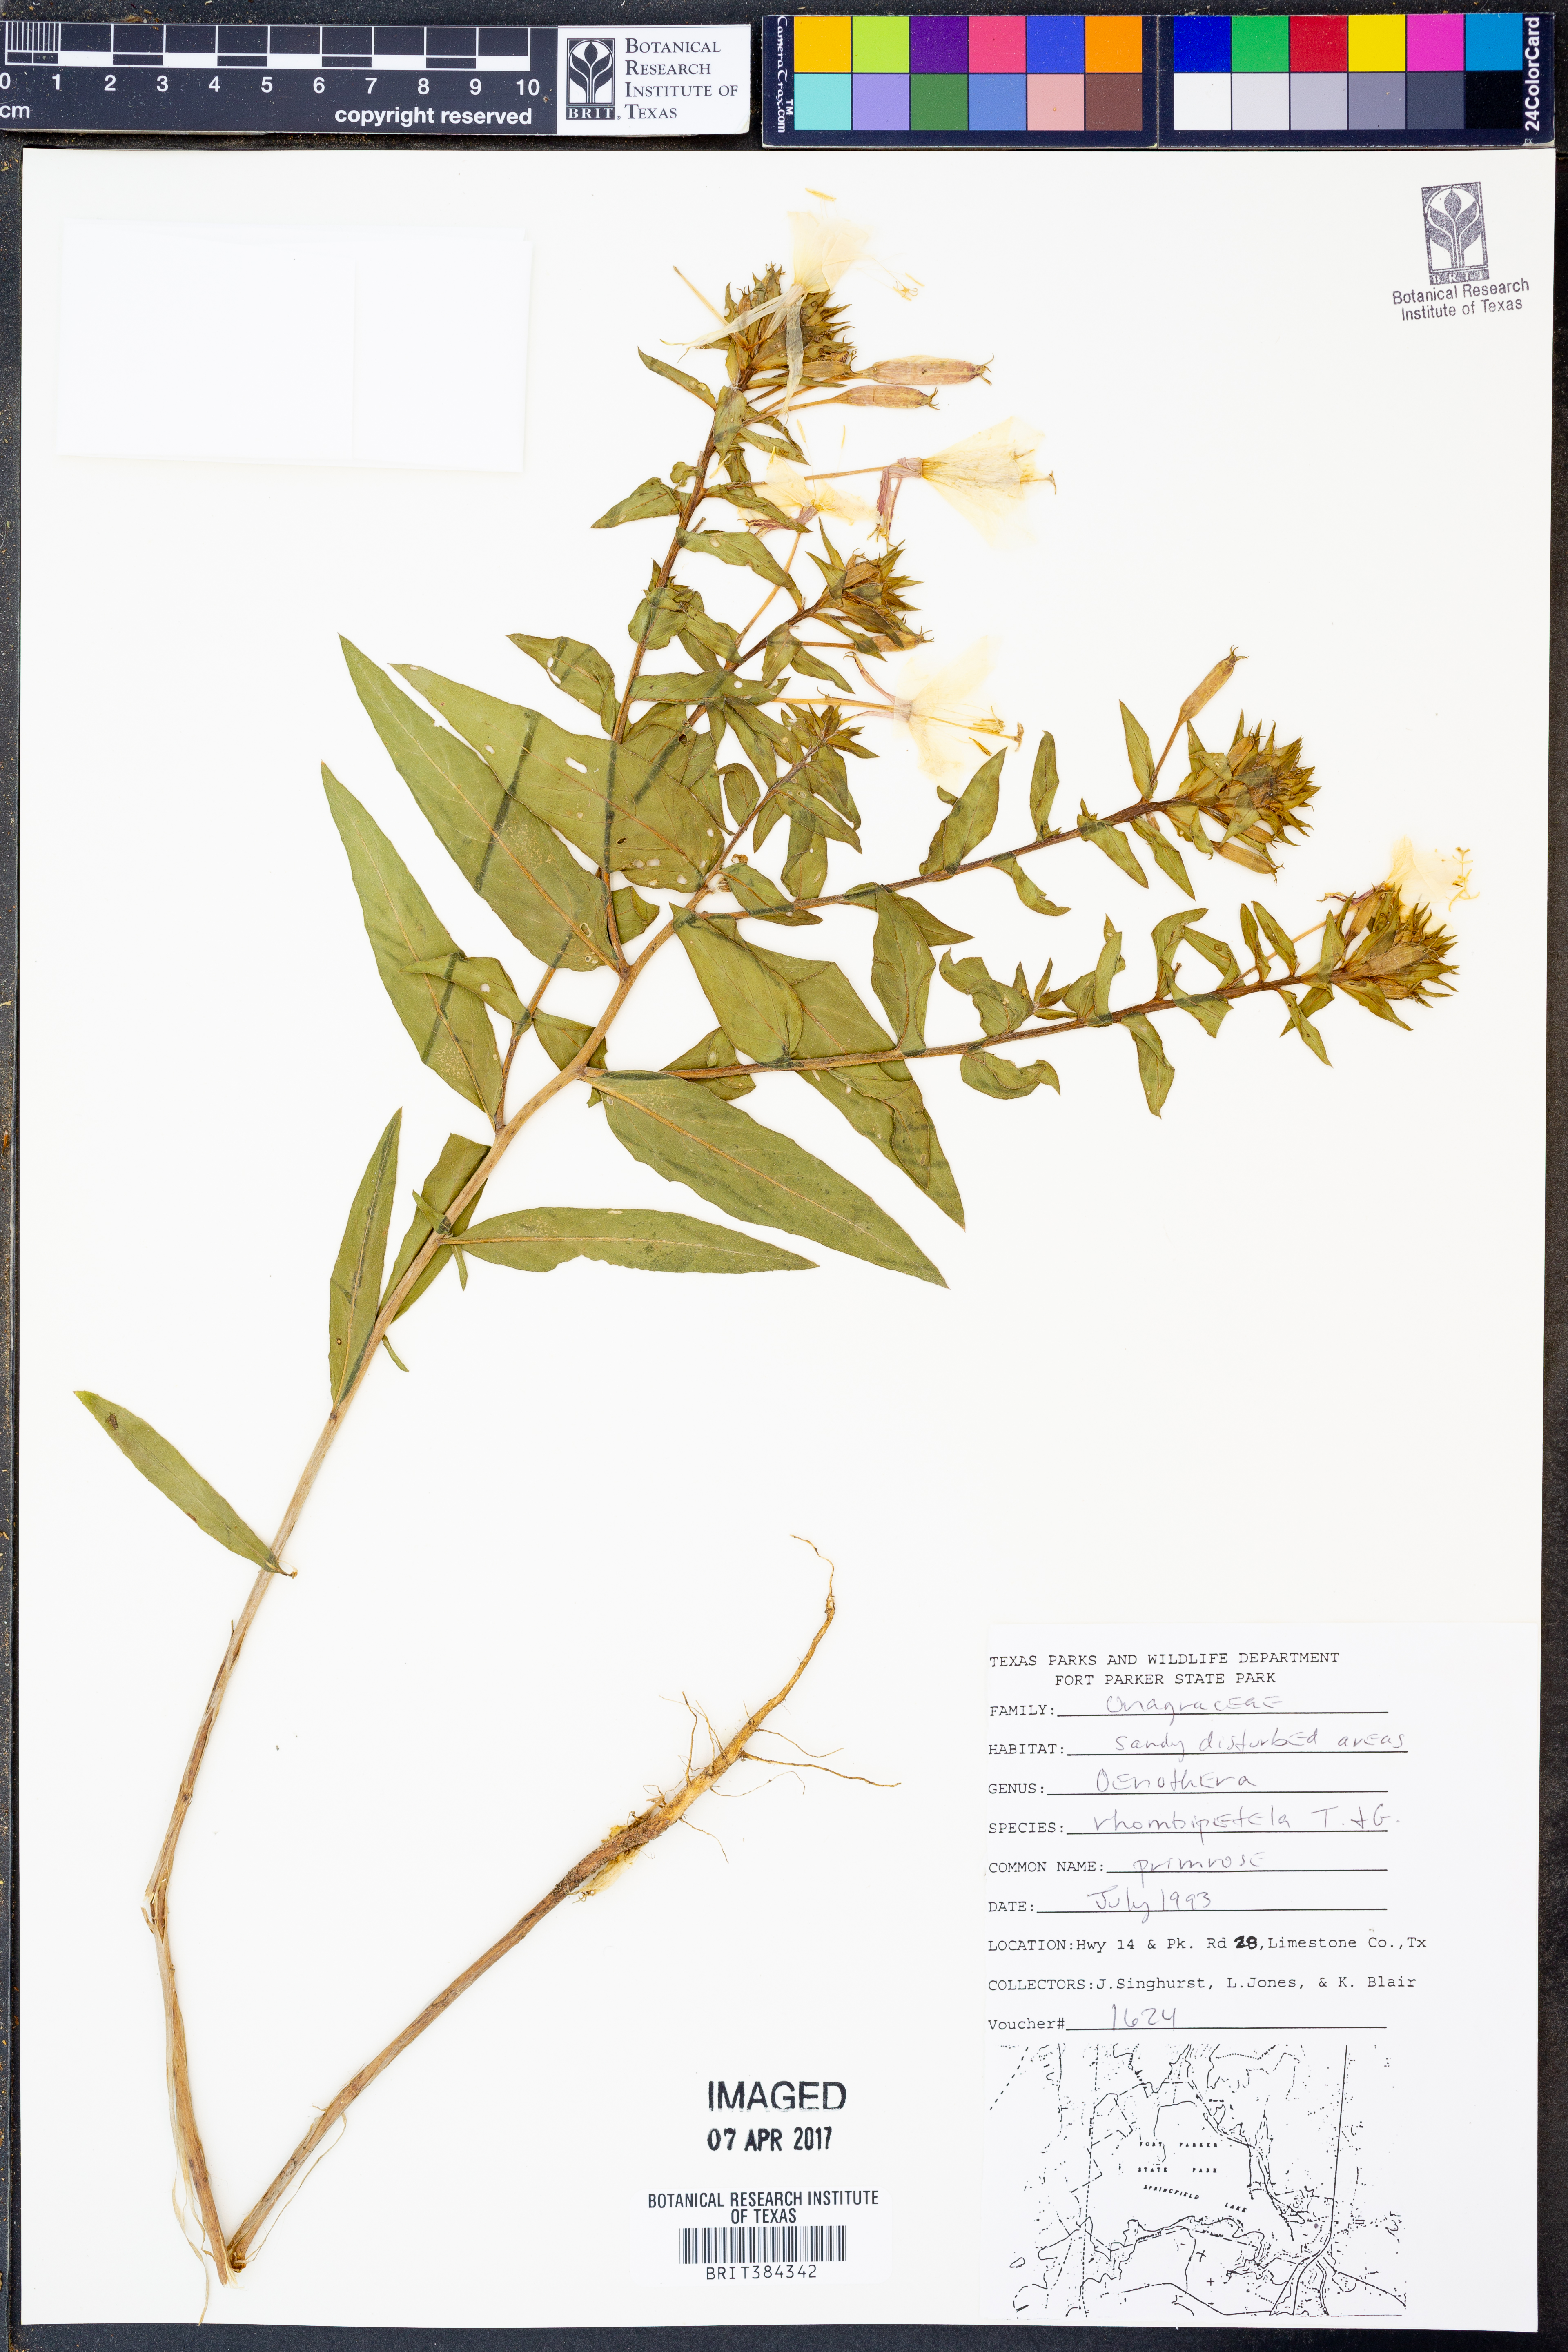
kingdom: Plantae
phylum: Tracheophyta
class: Magnoliopsida
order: Myrtales
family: Onagraceae
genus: Oenothera
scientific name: Oenothera rhombipetala
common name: Four-points evening-primrose
